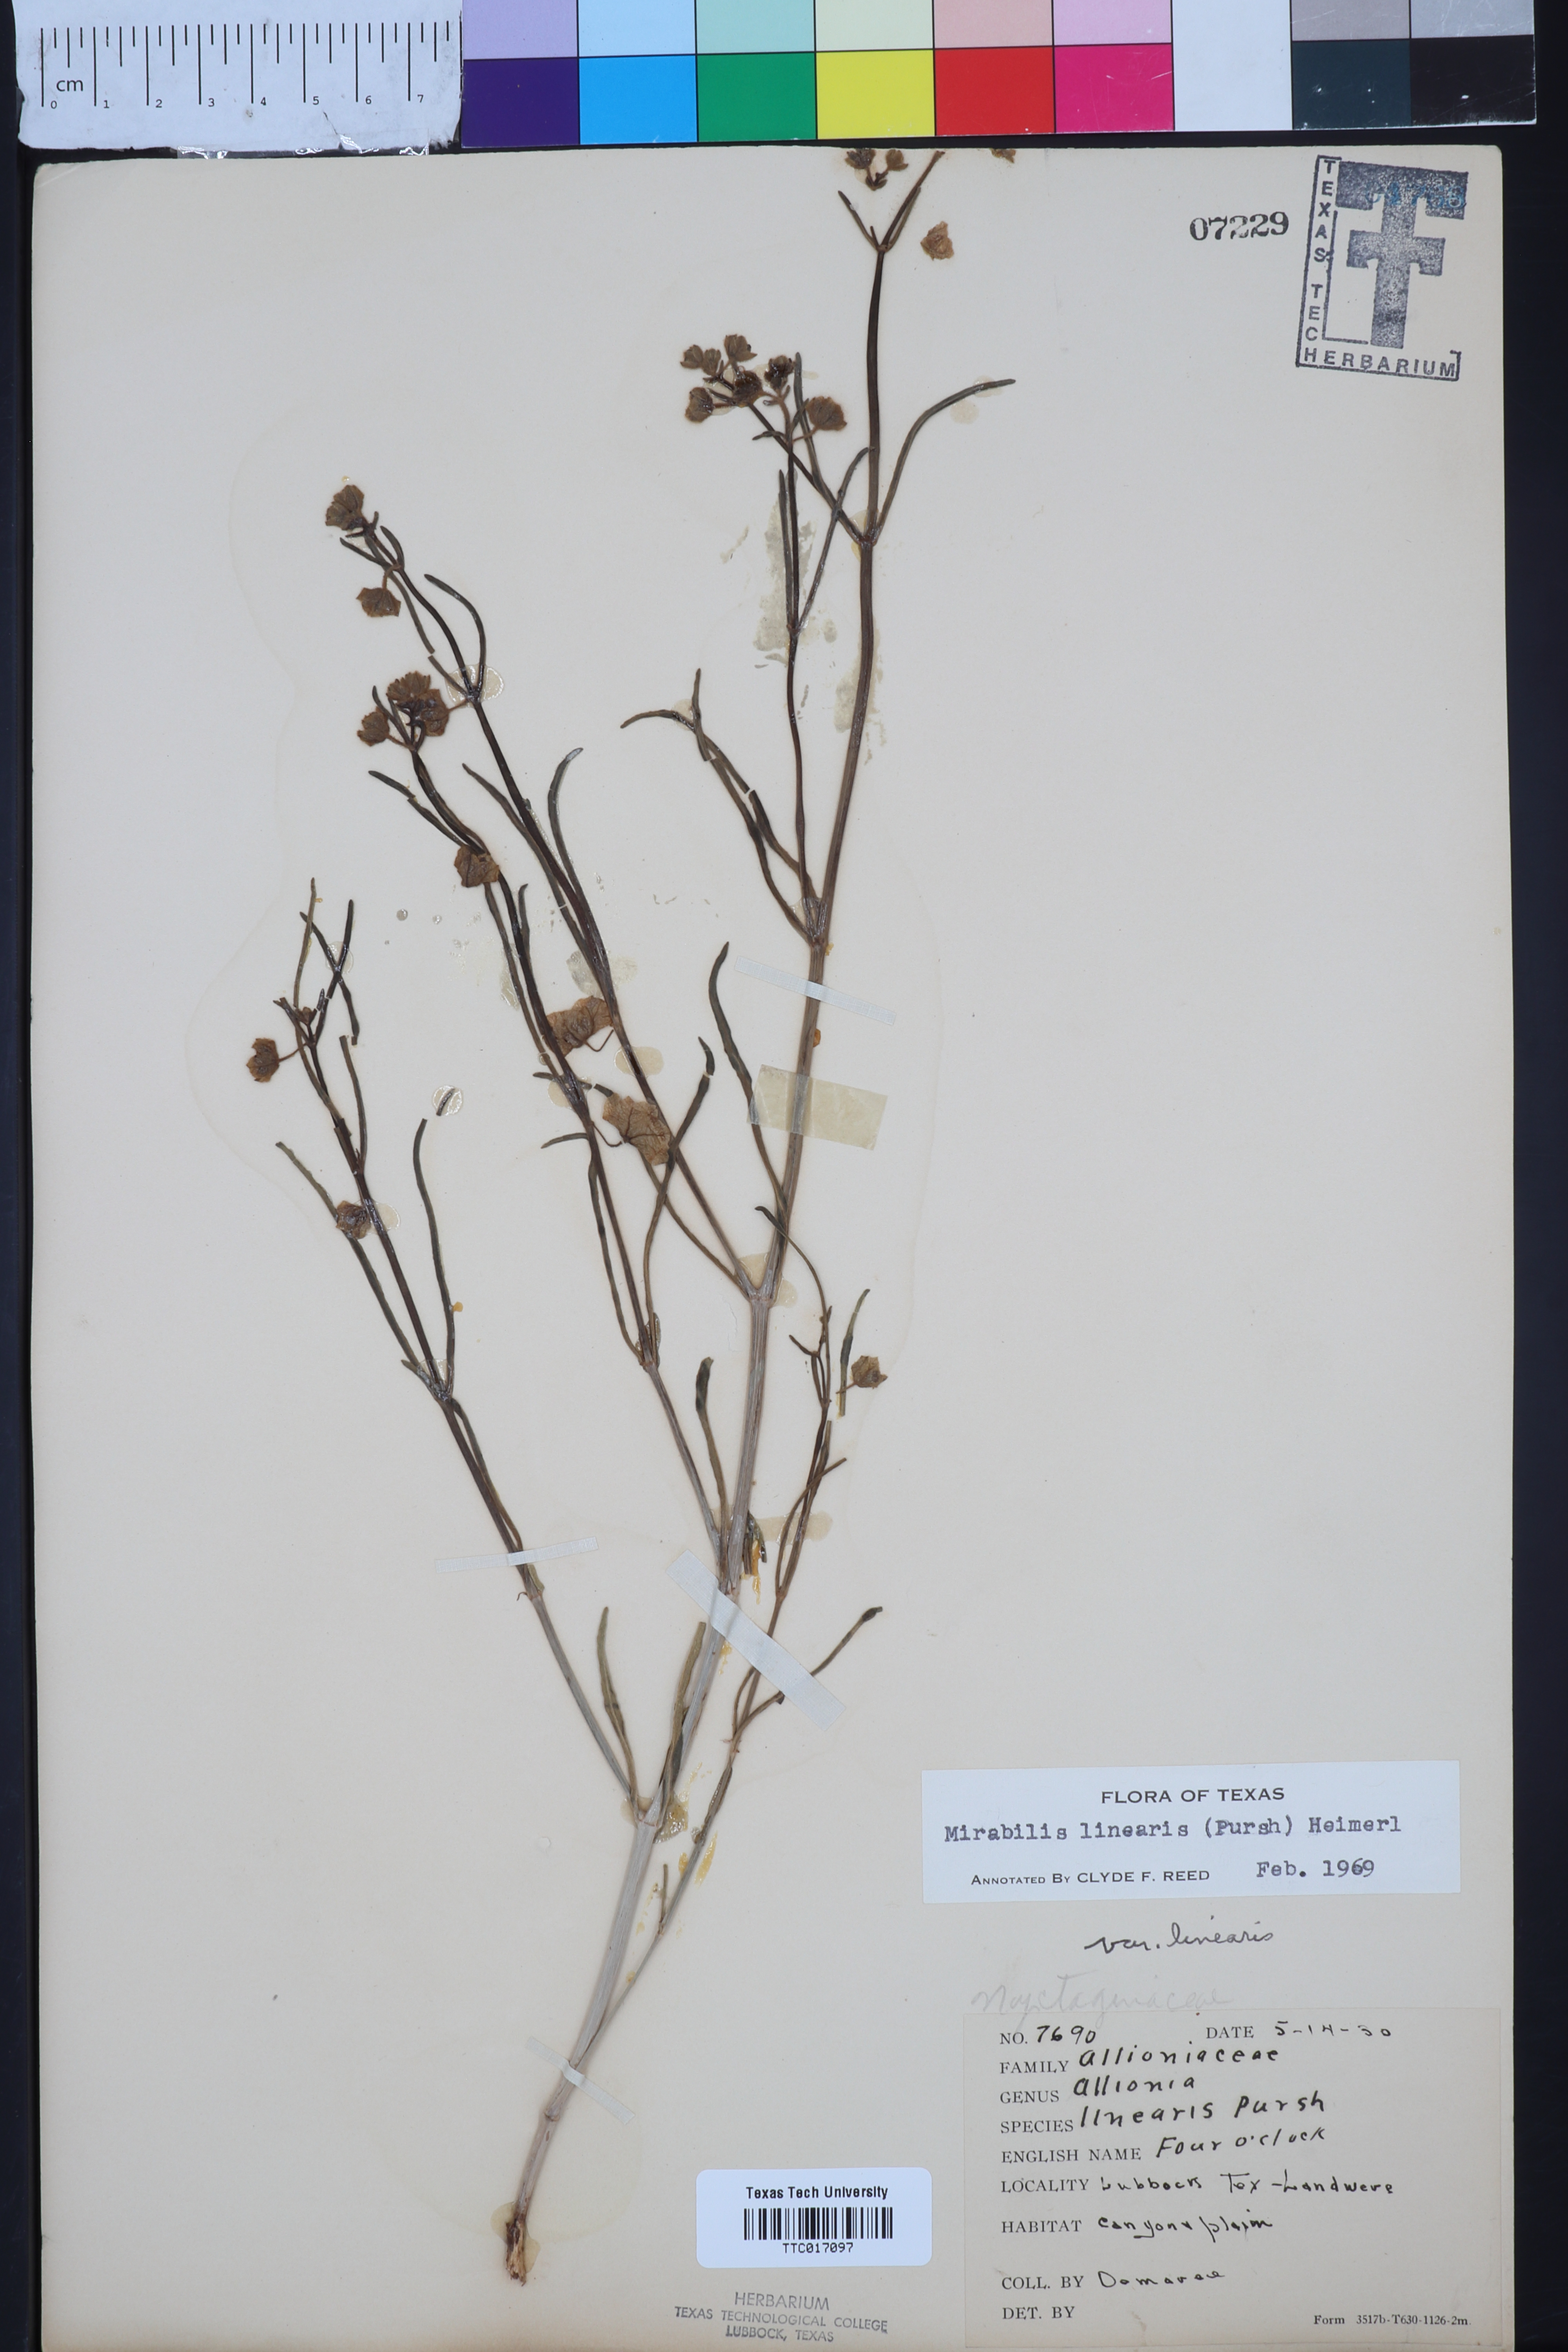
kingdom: Plantae
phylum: Tracheophyta
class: Magnoliopsida
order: Caryophyllales
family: Nyctaginaceae
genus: Mirabilis
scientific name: Mirabilis linearis
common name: Linear-leaved four-o'clock
